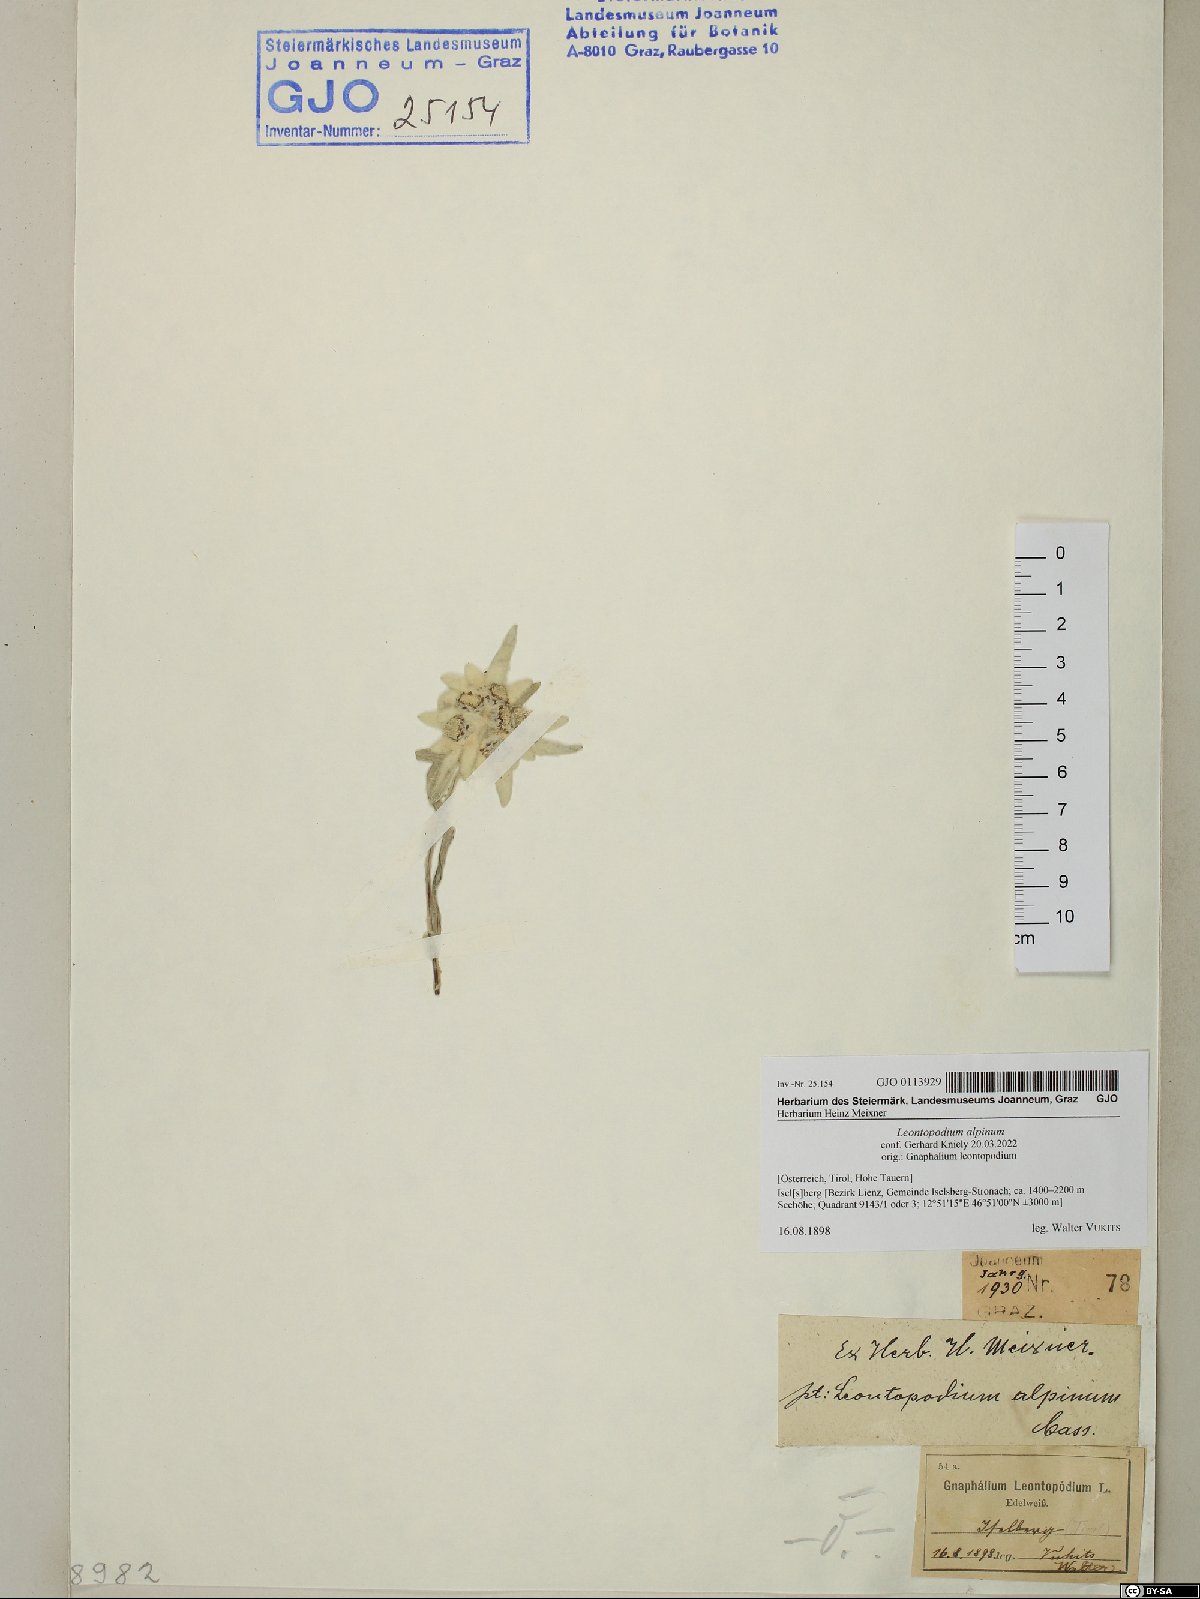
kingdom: Plantae
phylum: Tracheophyta
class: Magnoliopsida
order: Asterales
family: Asteraceae
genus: Leontopodium
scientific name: Leontopodium nivale
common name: Edelweiss
